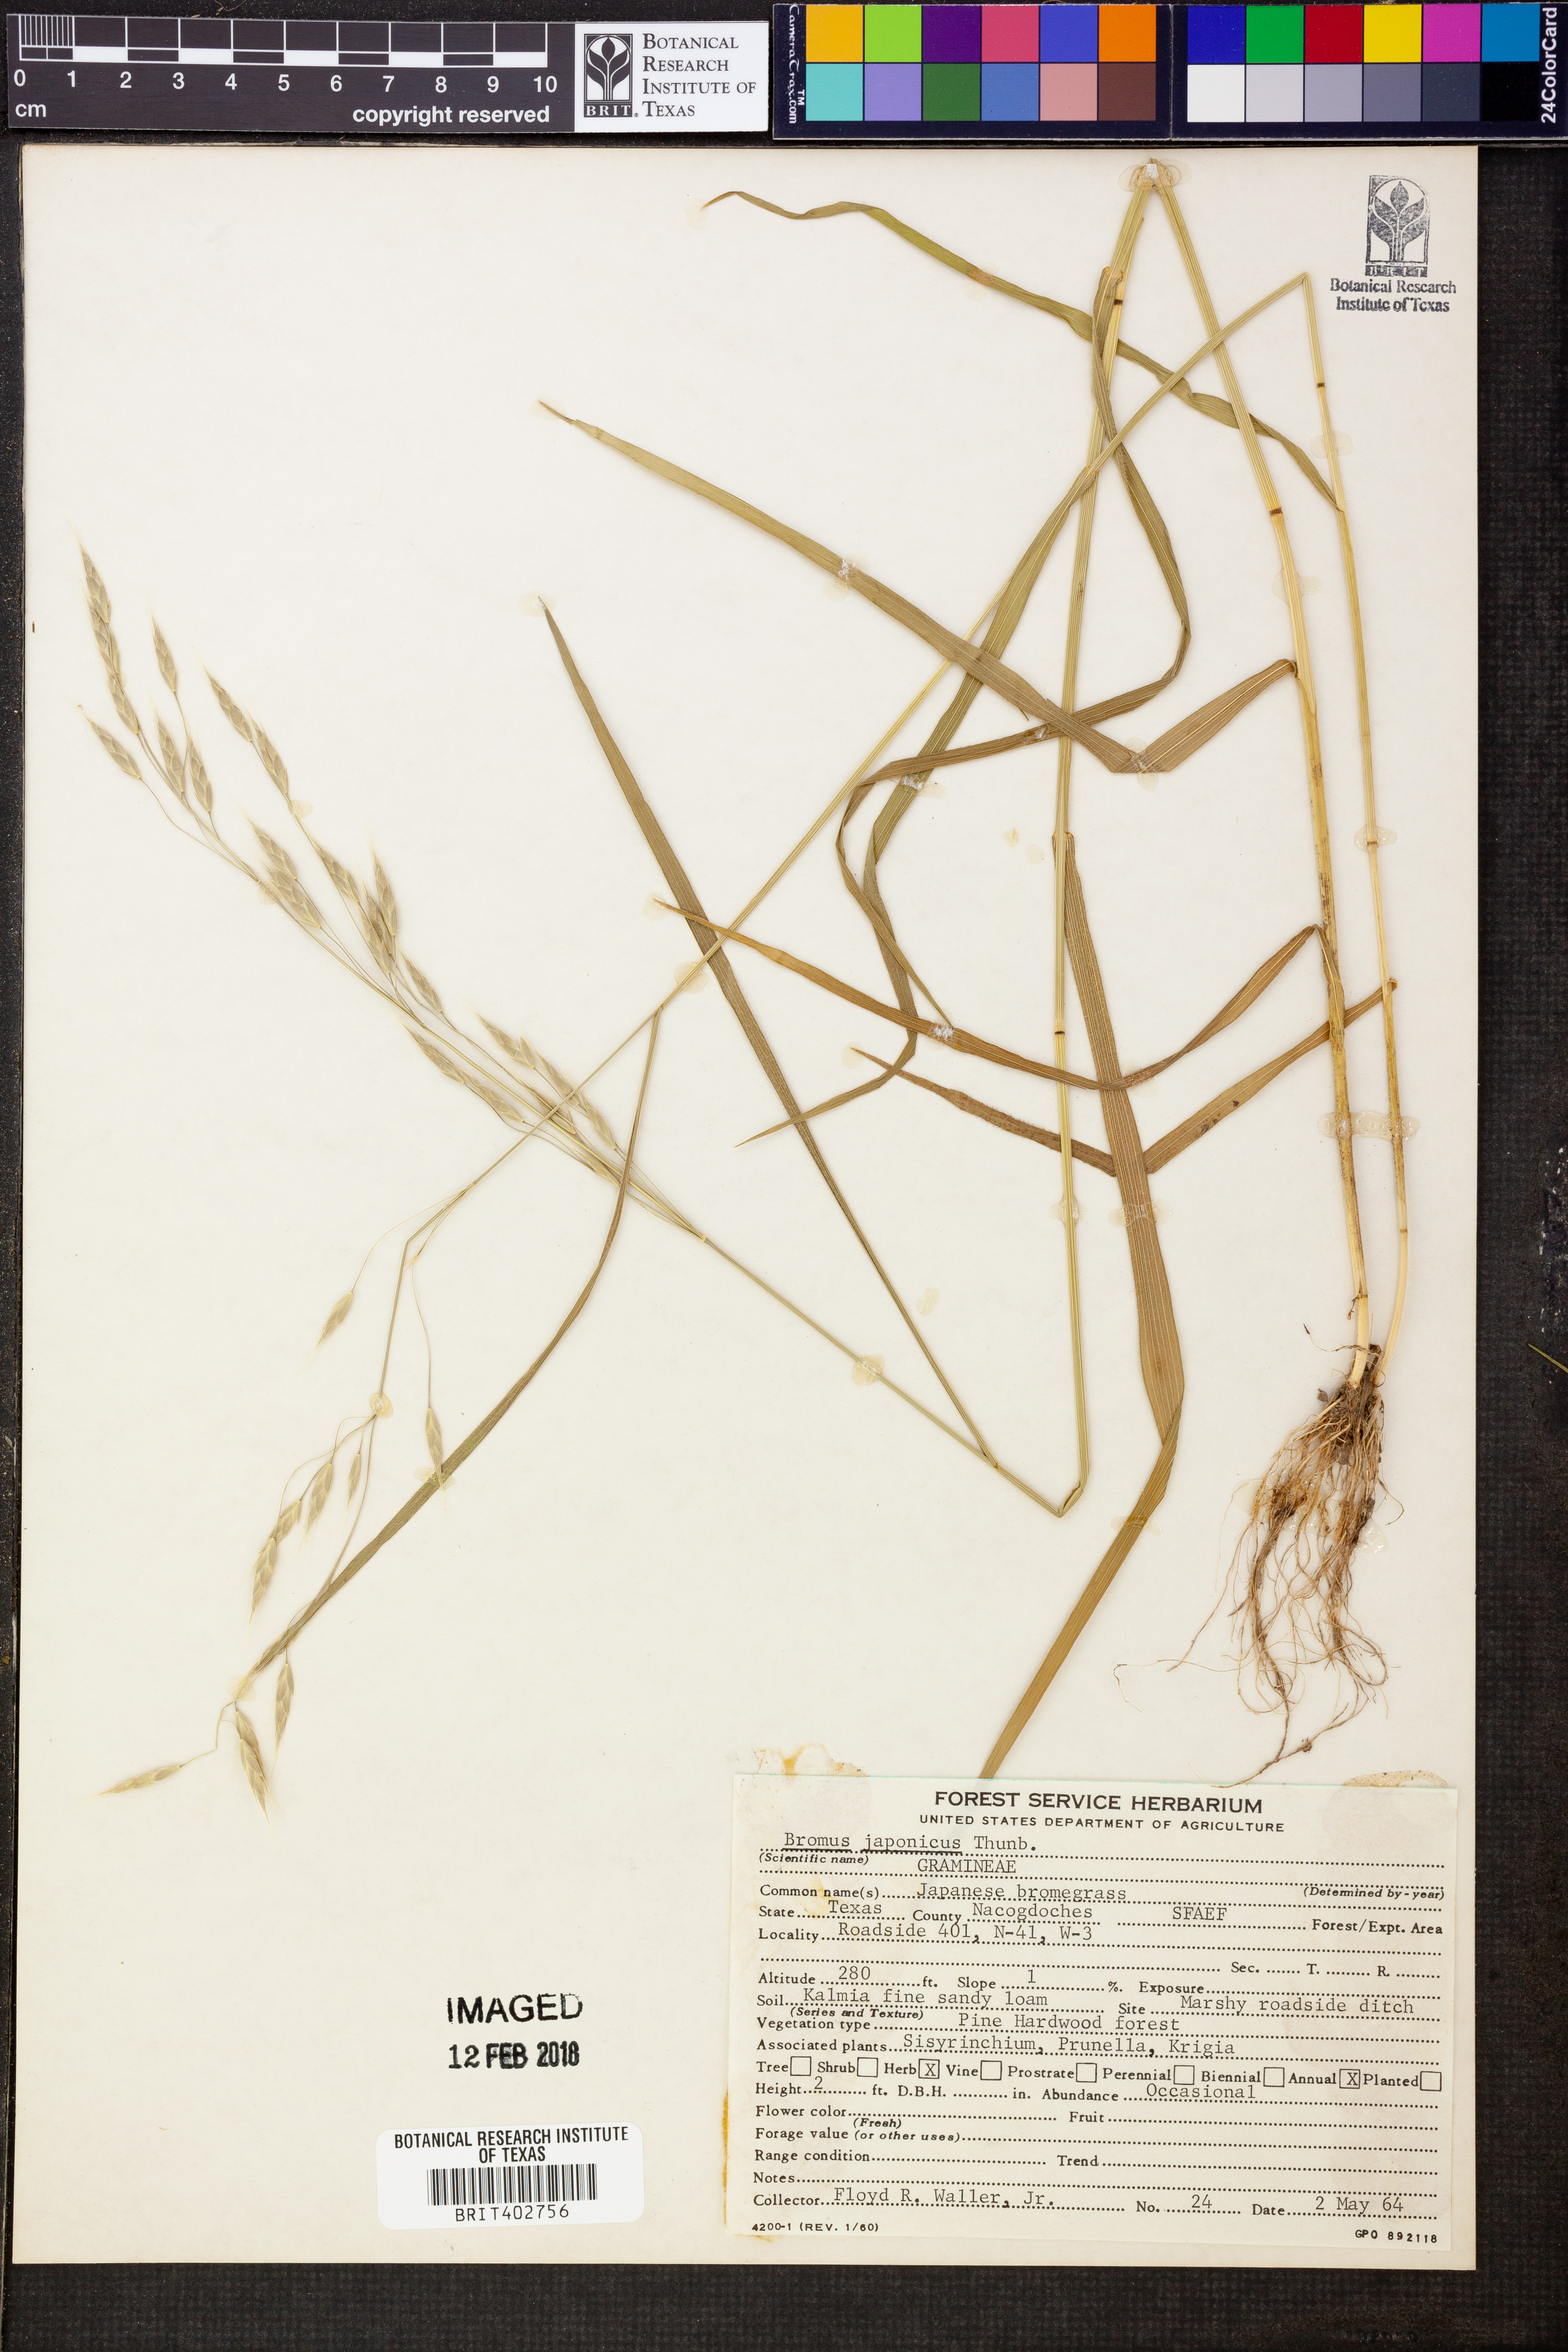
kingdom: Plantae
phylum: Tracheophyta
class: Liliopsida
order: Poales
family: Poaceae
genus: Bromus
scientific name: Bromus japonicus
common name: Japanese brome
